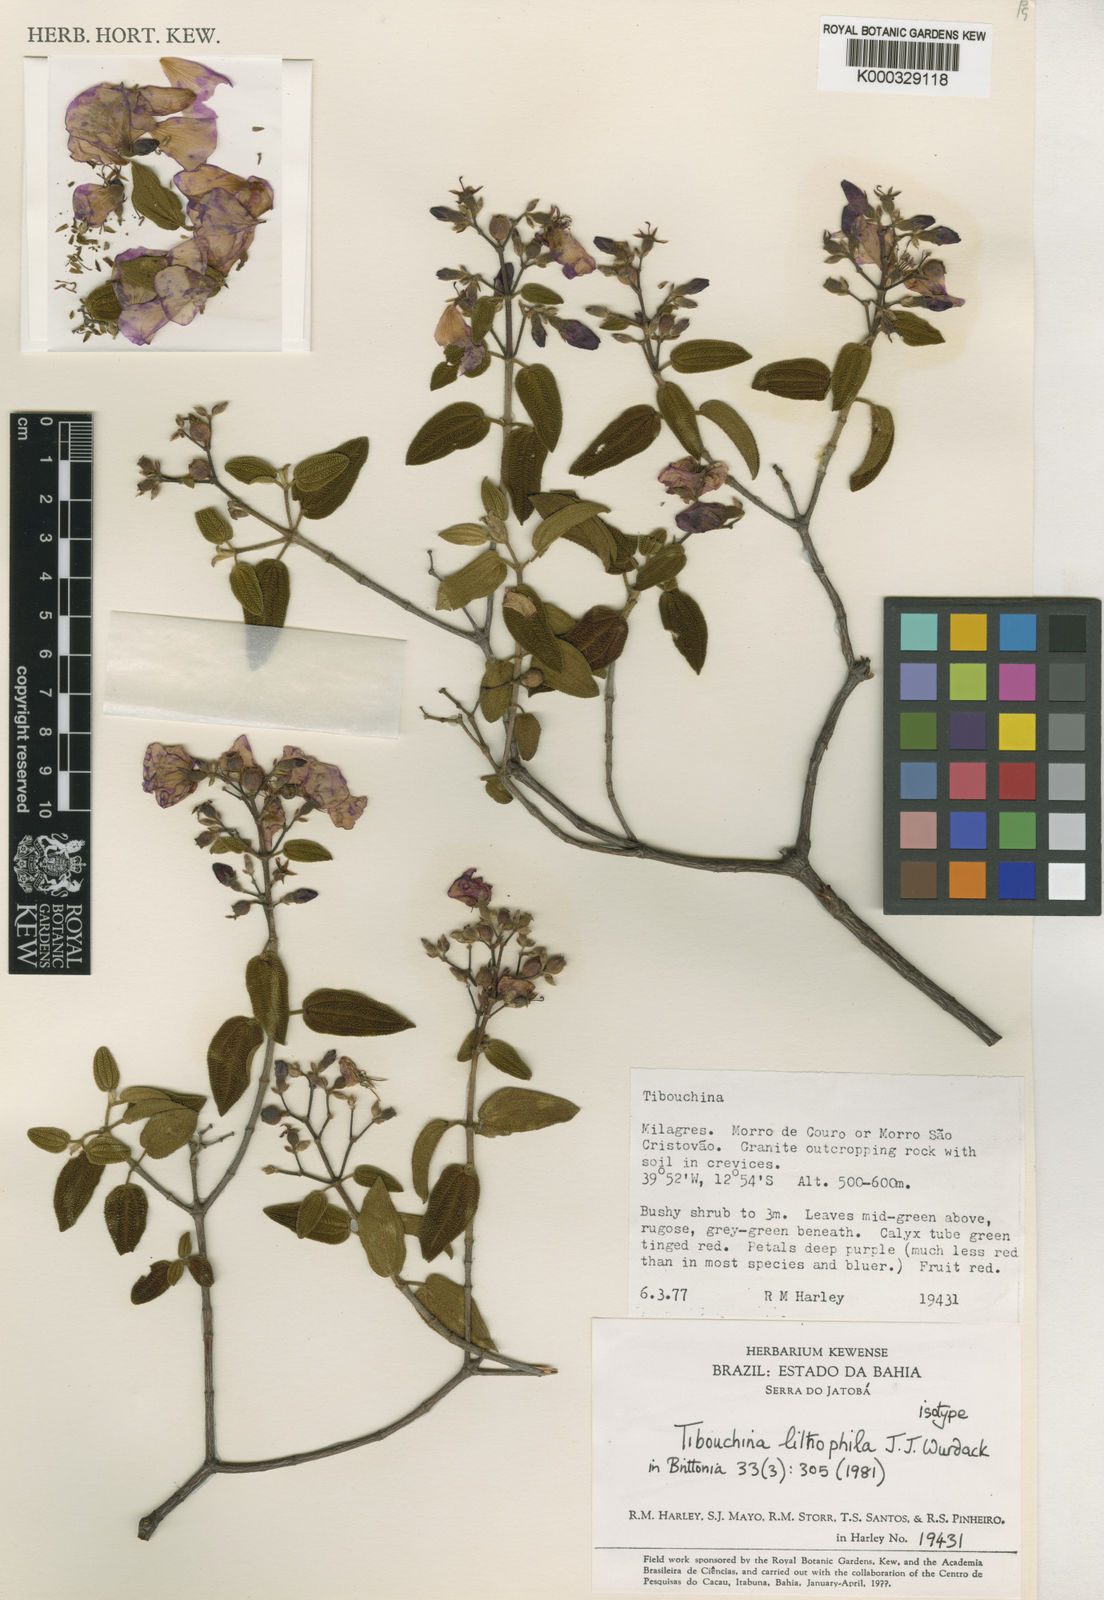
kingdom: Plantae
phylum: Tracheophyta
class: Magnoliopsida
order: Myrtales
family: Melastomataceae
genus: Tibouchina
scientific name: Tibouchina lithophila
